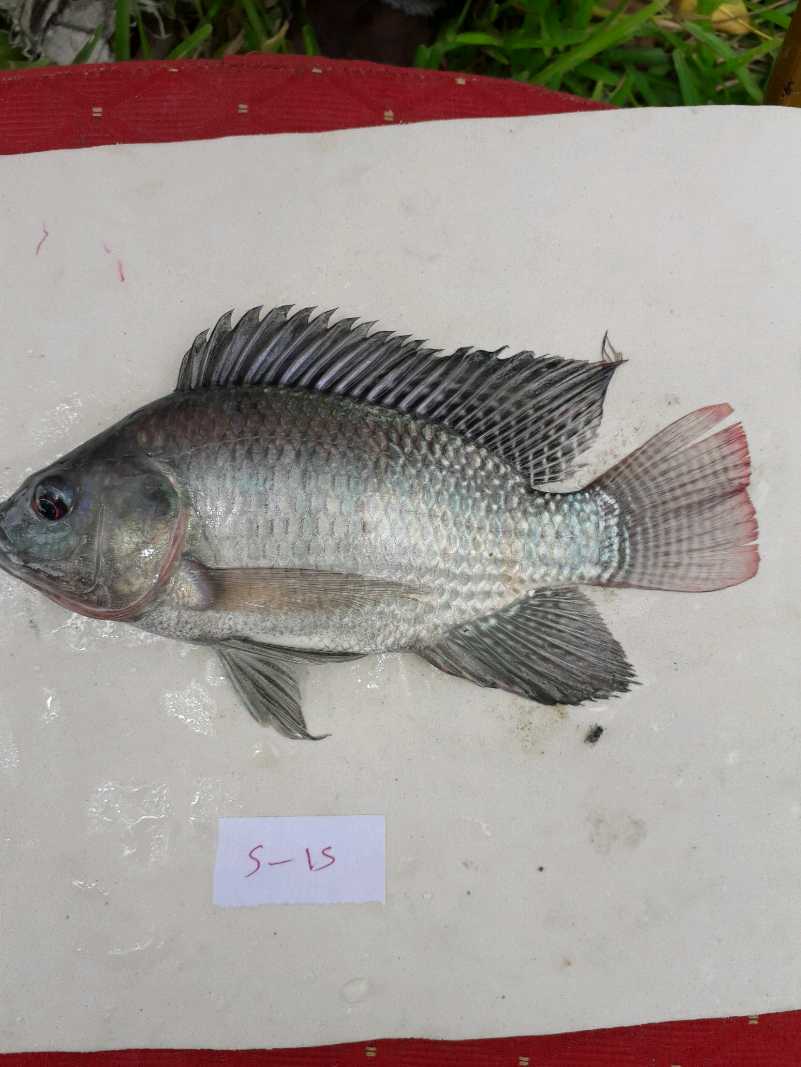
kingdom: Animalia
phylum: Chordata
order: Perciformes
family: Cichlidae
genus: Oreochromis
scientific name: Oreochromis niloticus
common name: Nile tilapia
